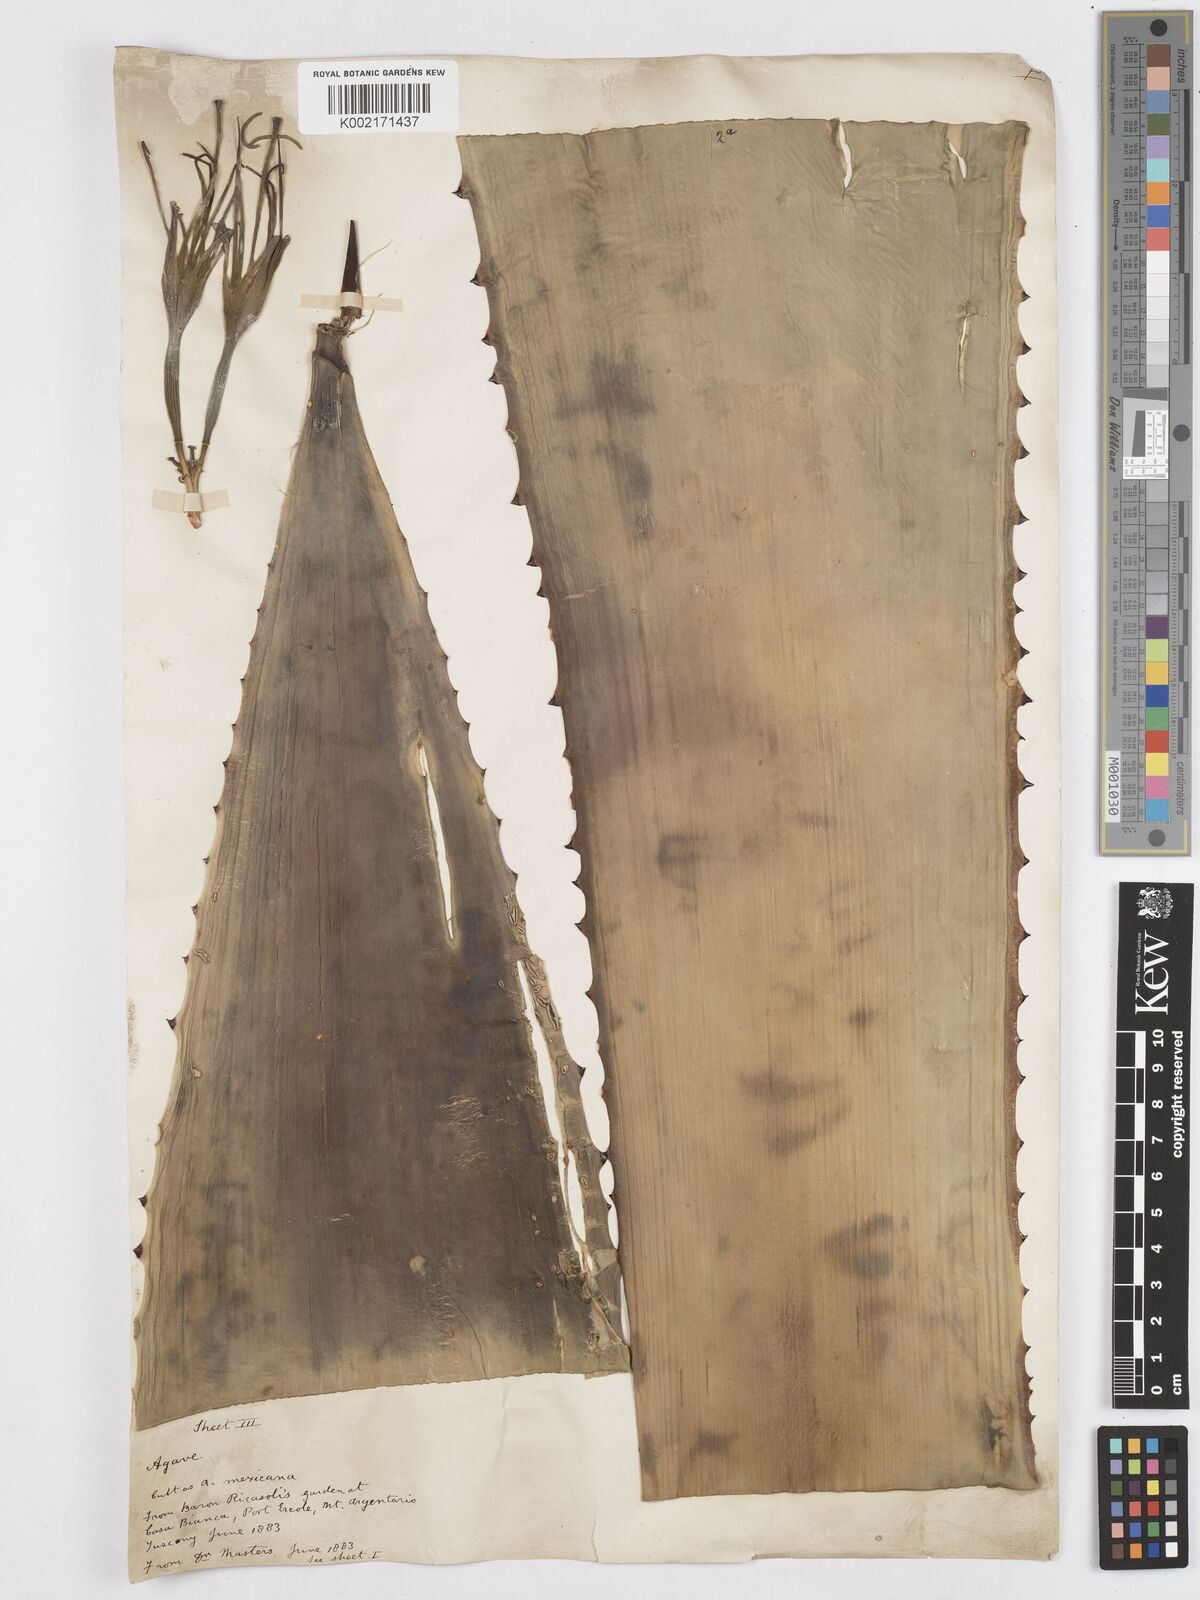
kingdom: Plantae
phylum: Tracheophyta
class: Liliopsida
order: Asparagales
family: Asparagaceae
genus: Agave
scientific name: Agave
